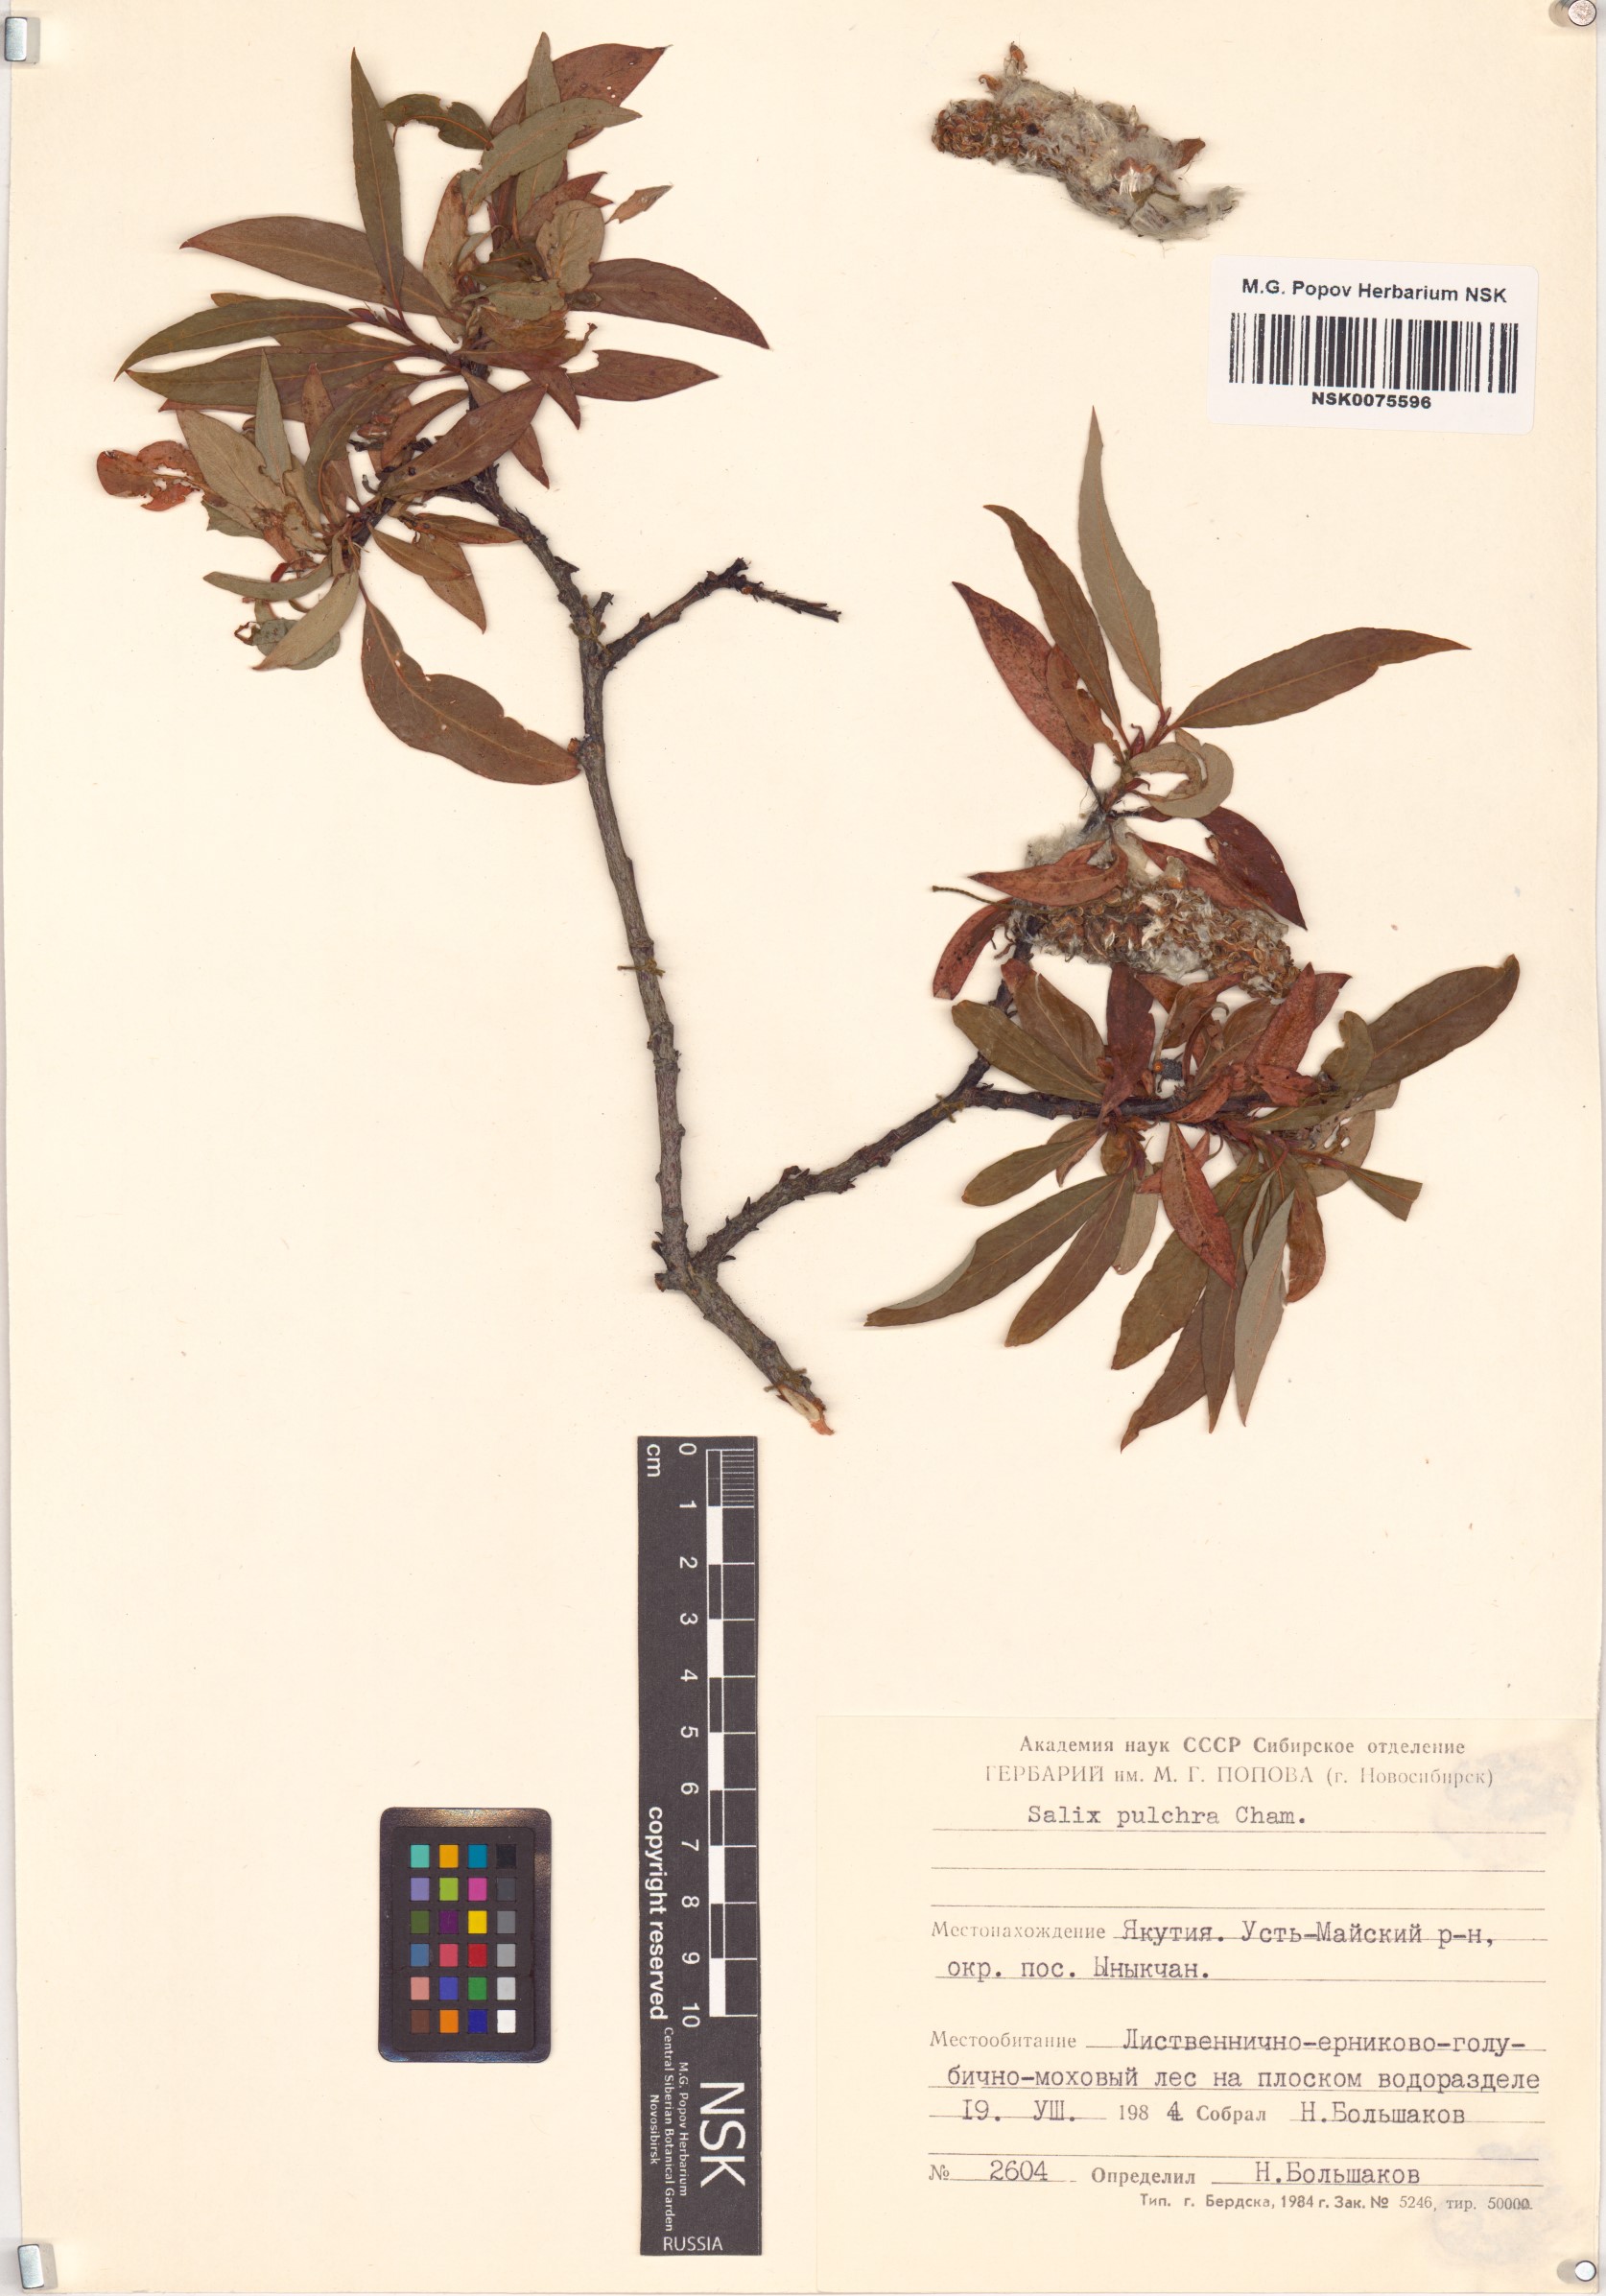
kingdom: Plantae
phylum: Tracheophyta
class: Magnoliopsida
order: Malpighiales
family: Salicaceae
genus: Salix
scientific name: Salix pulchra
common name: Diamond-leaved willow
